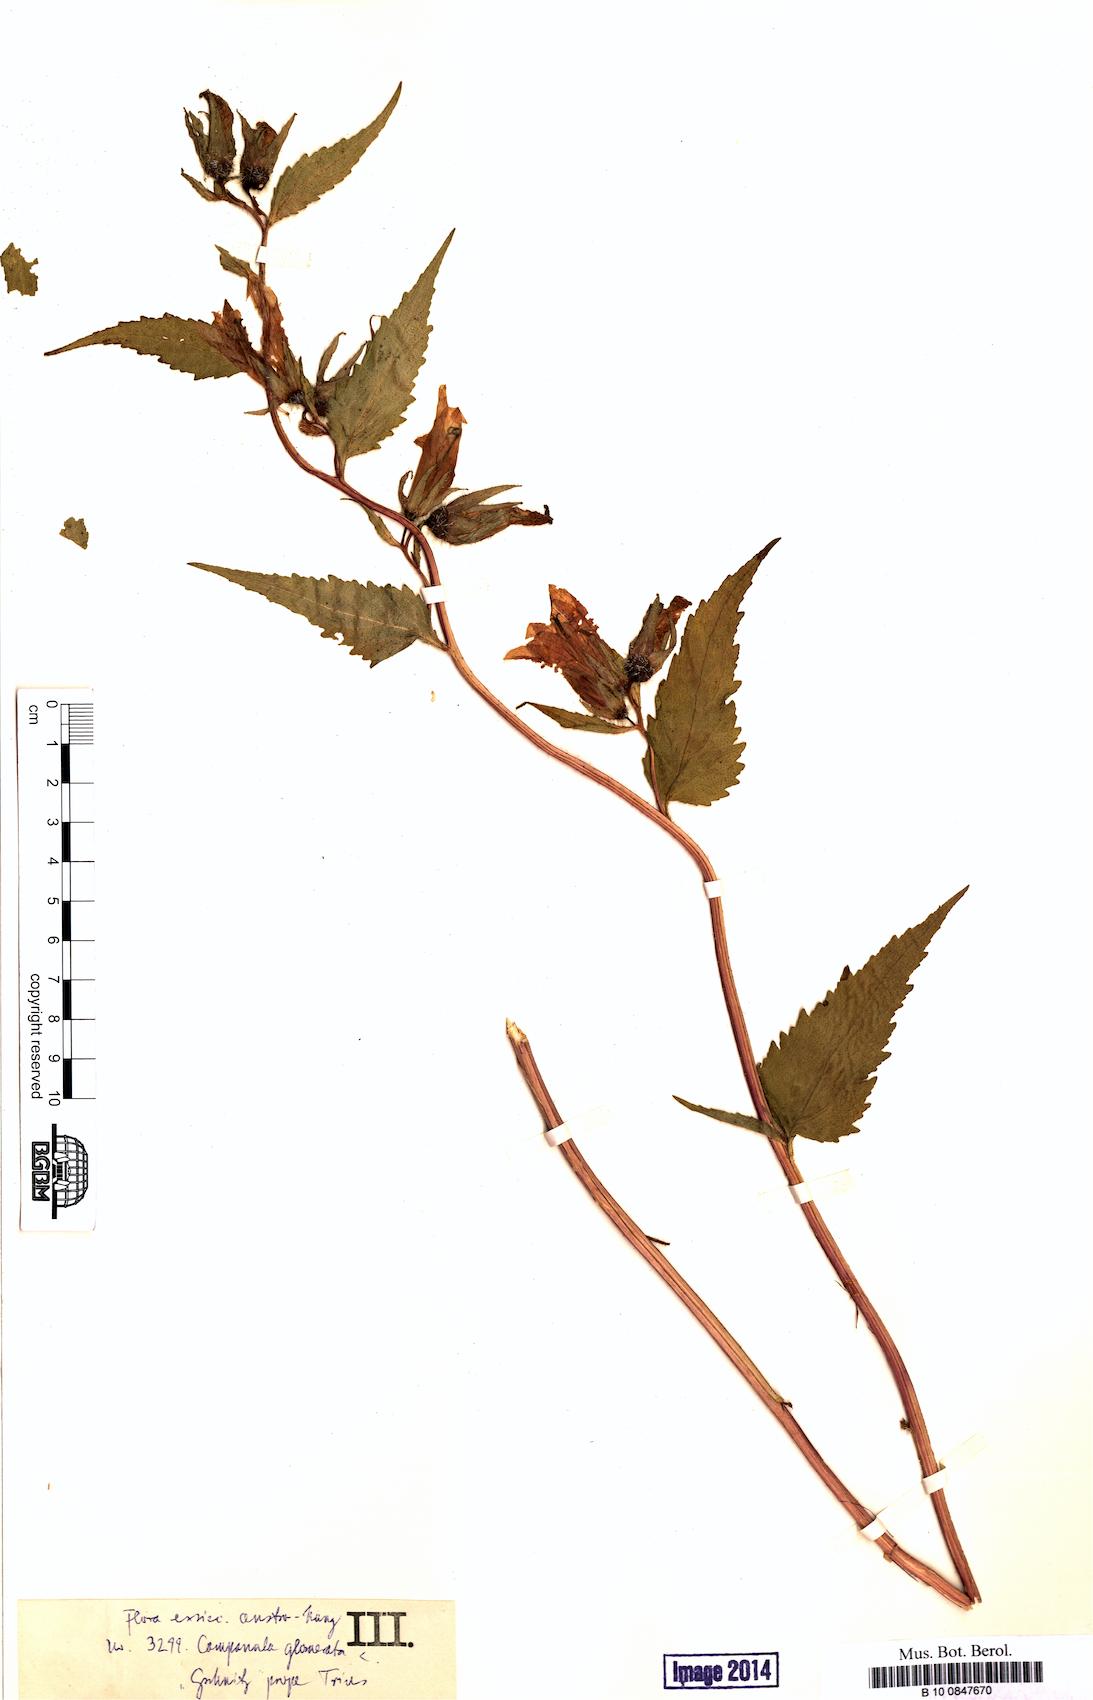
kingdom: Plantae
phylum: Tracheophyta
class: Magnoliopsida
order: Asterales
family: Campanulaceae
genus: Campanula
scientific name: Campanula trachelium
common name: Nettle-leaved bellflower
